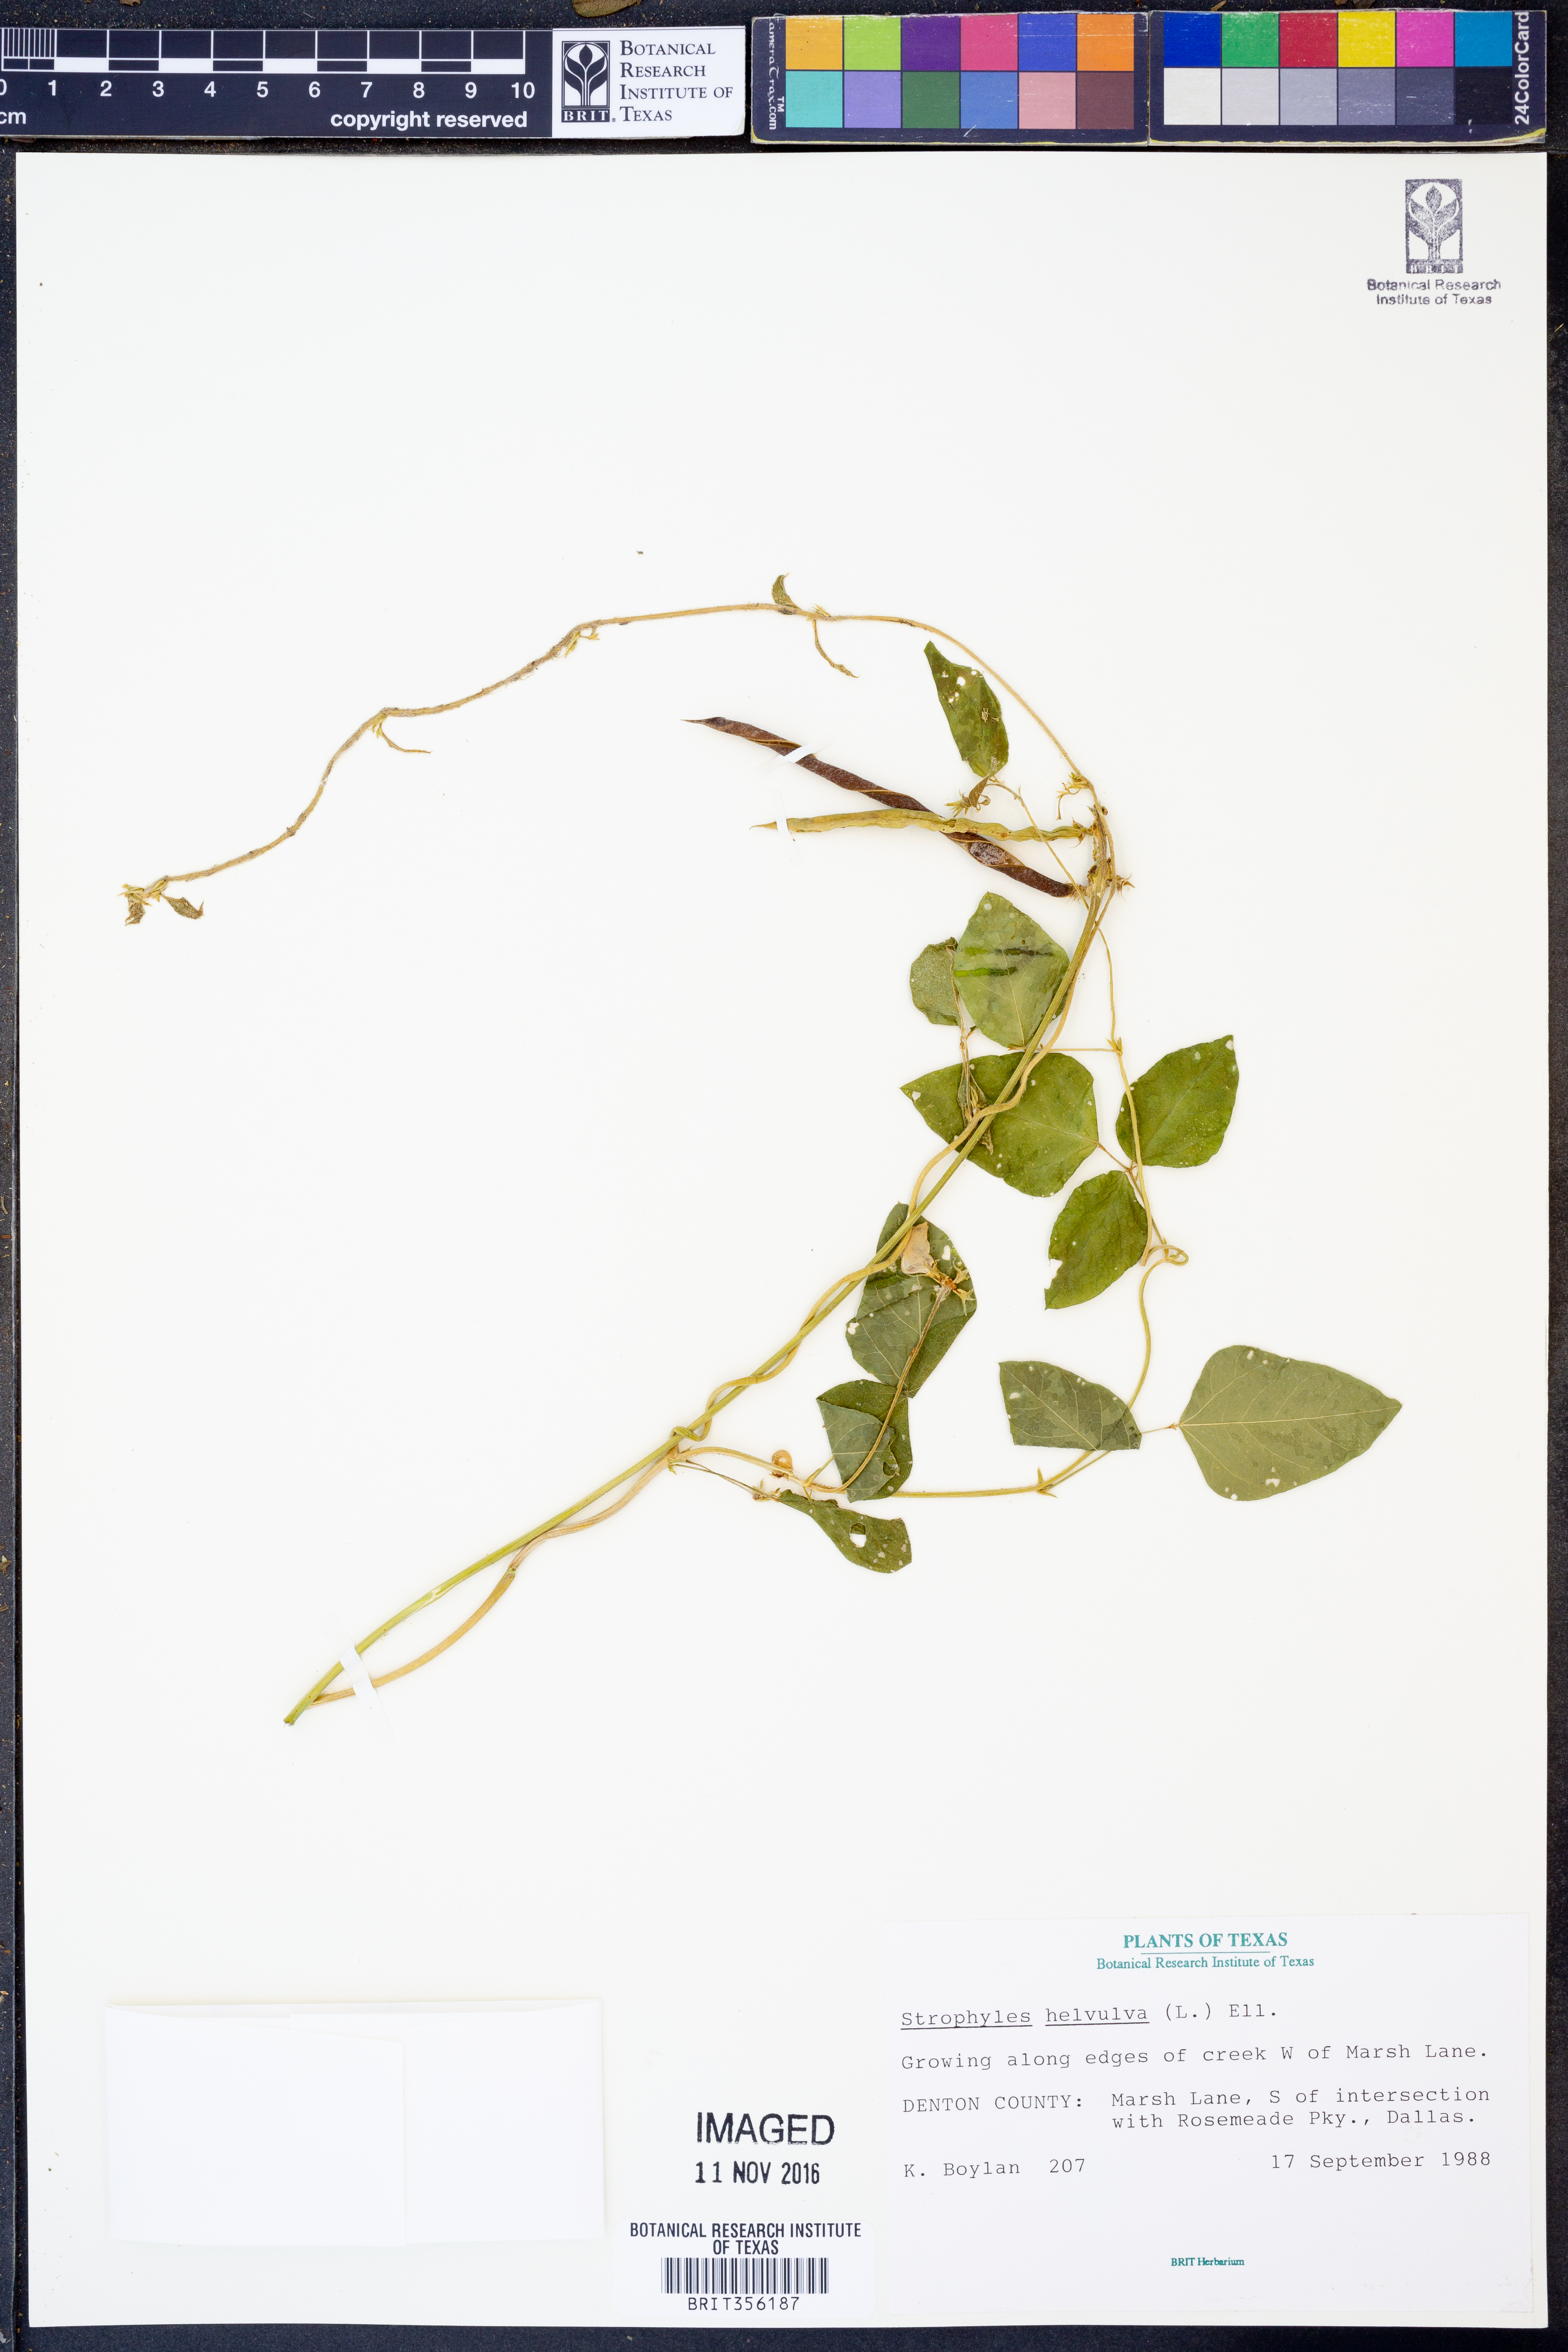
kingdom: Plantae
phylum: Tracheophyta
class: Magnoliopsida
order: Fabales
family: Fabaceae
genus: Strophostyles
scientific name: Strophostyles helvula
